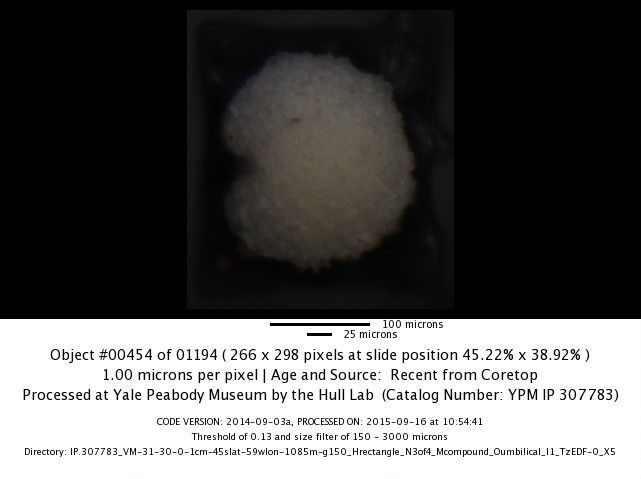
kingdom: Chromista
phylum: Foraminifera
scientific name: Foraminifera
